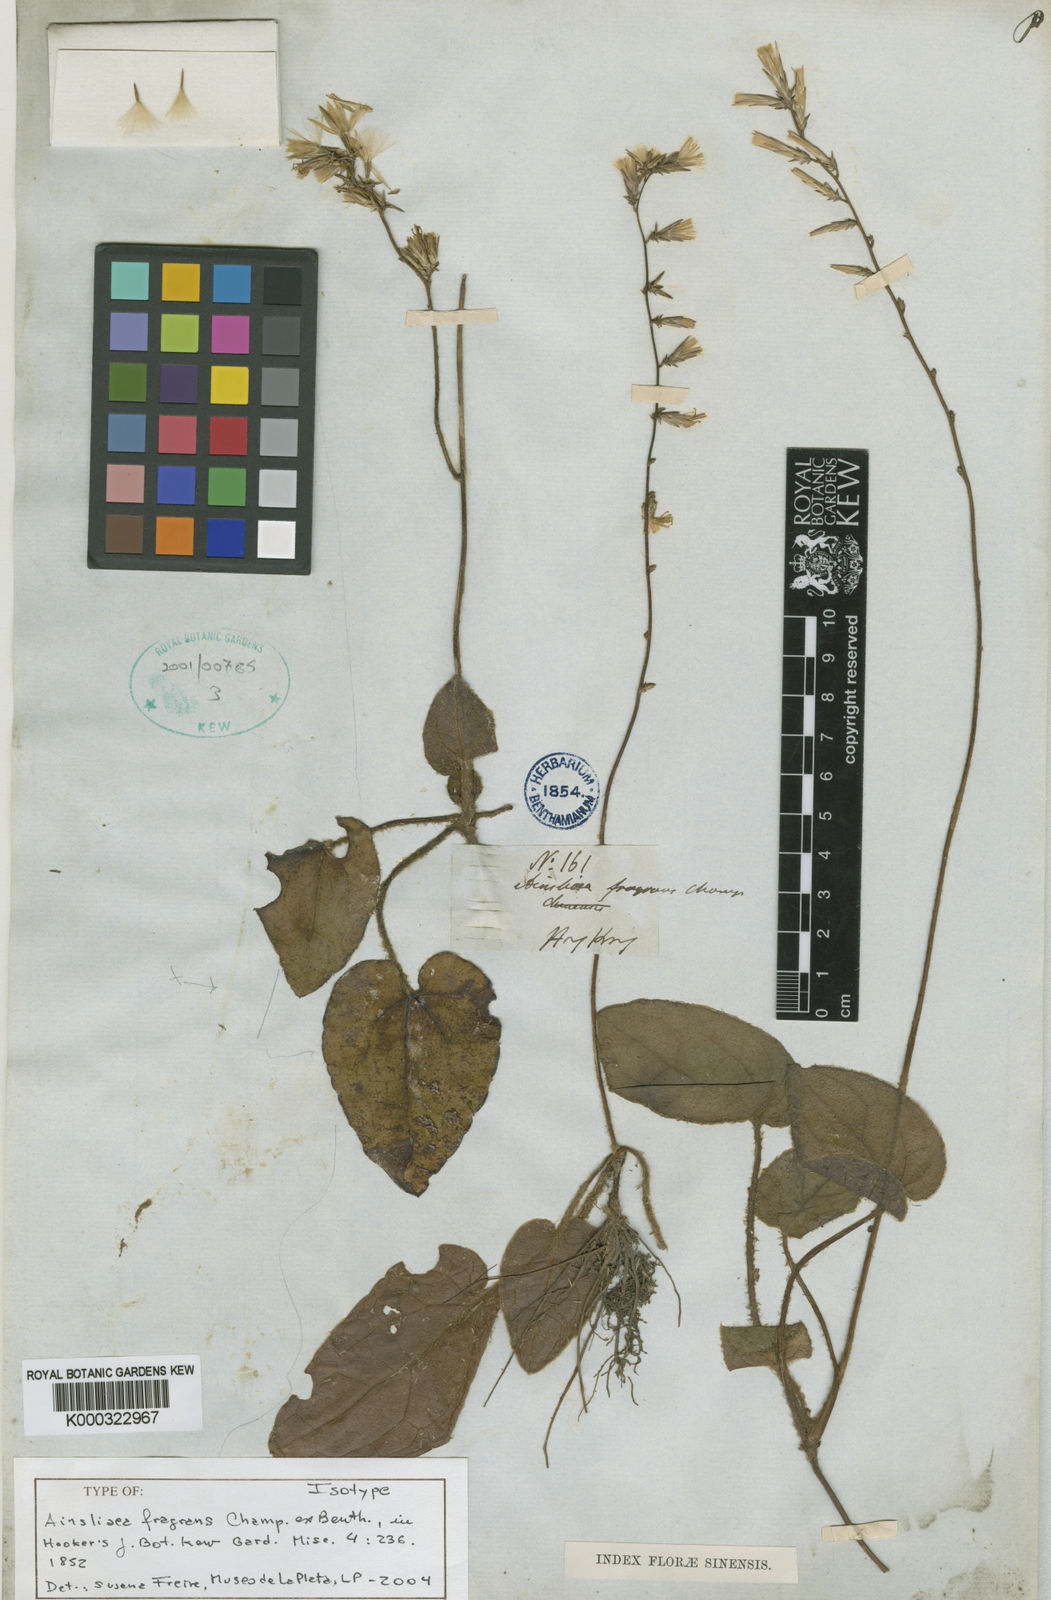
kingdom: Plantae
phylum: Tracheophyta
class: Magnoliopsida
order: Asterales
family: Asteraceae
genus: Ainsliaea
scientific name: Ainsliaea fragrans
